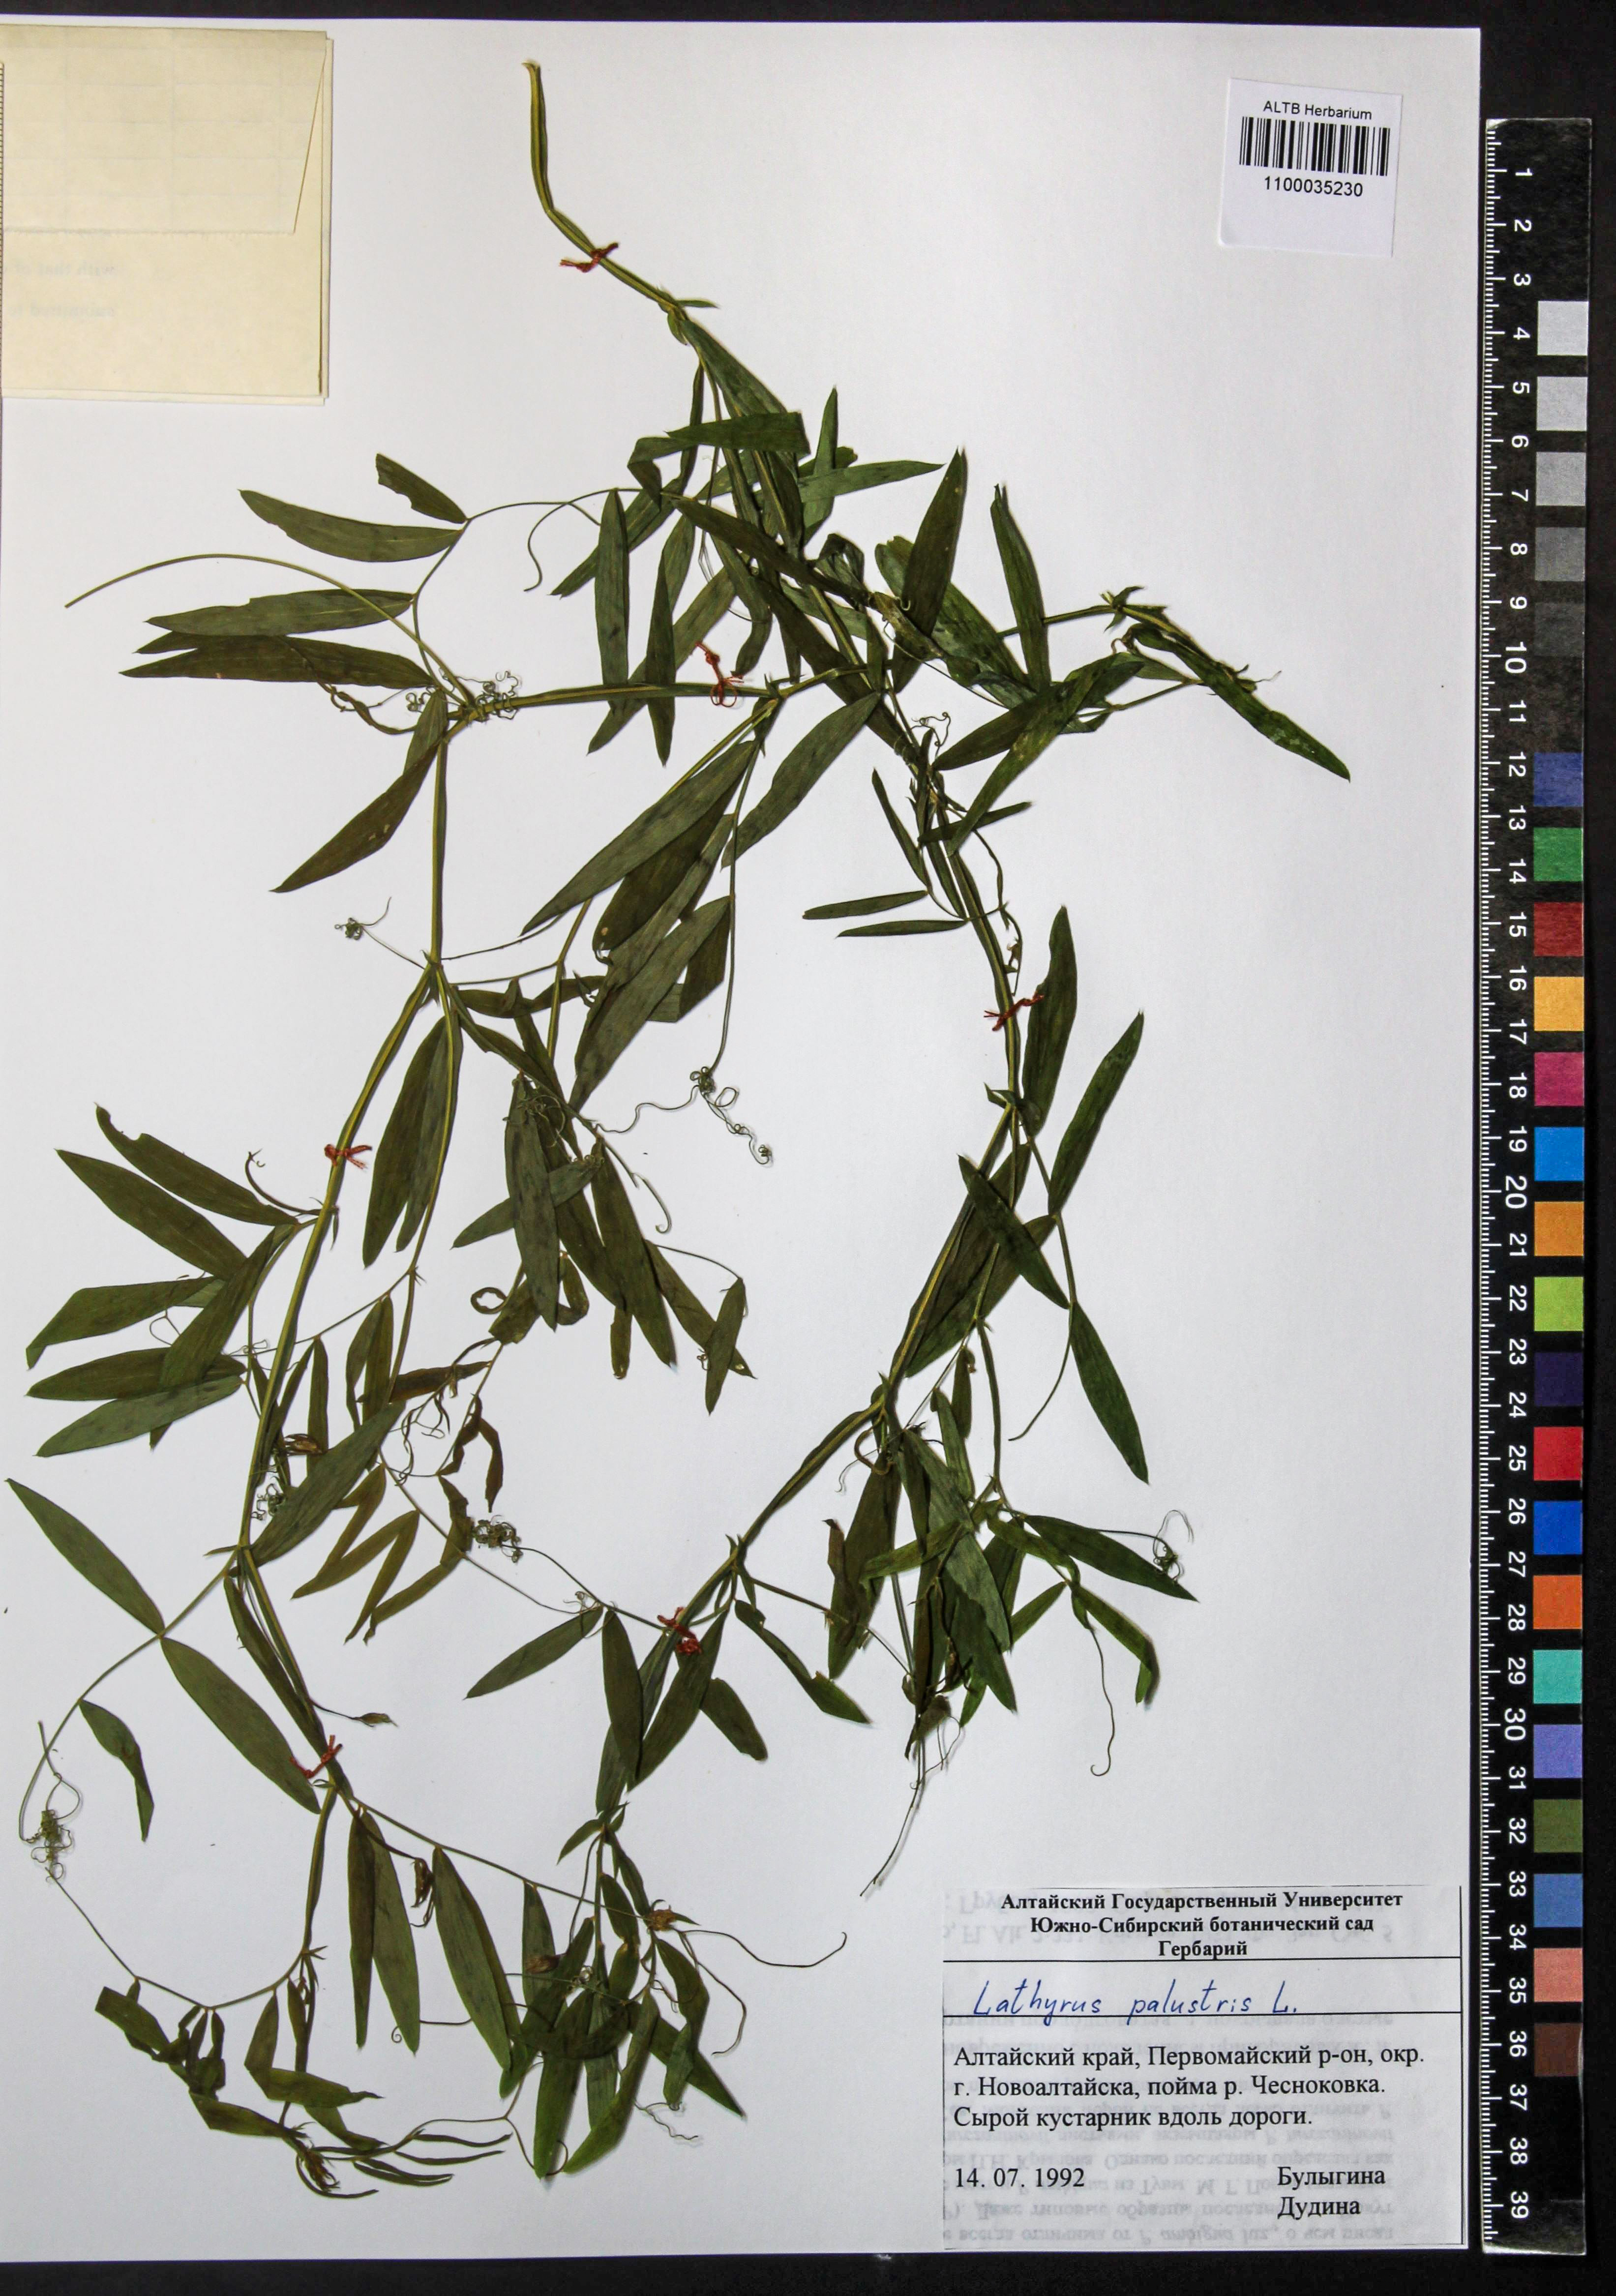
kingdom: Plantae
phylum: Tracheophyta
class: Magnoliopsida
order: Fabales
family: Fabaceae
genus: Lathyrus
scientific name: Lathyrus palustris
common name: Marsh pea
